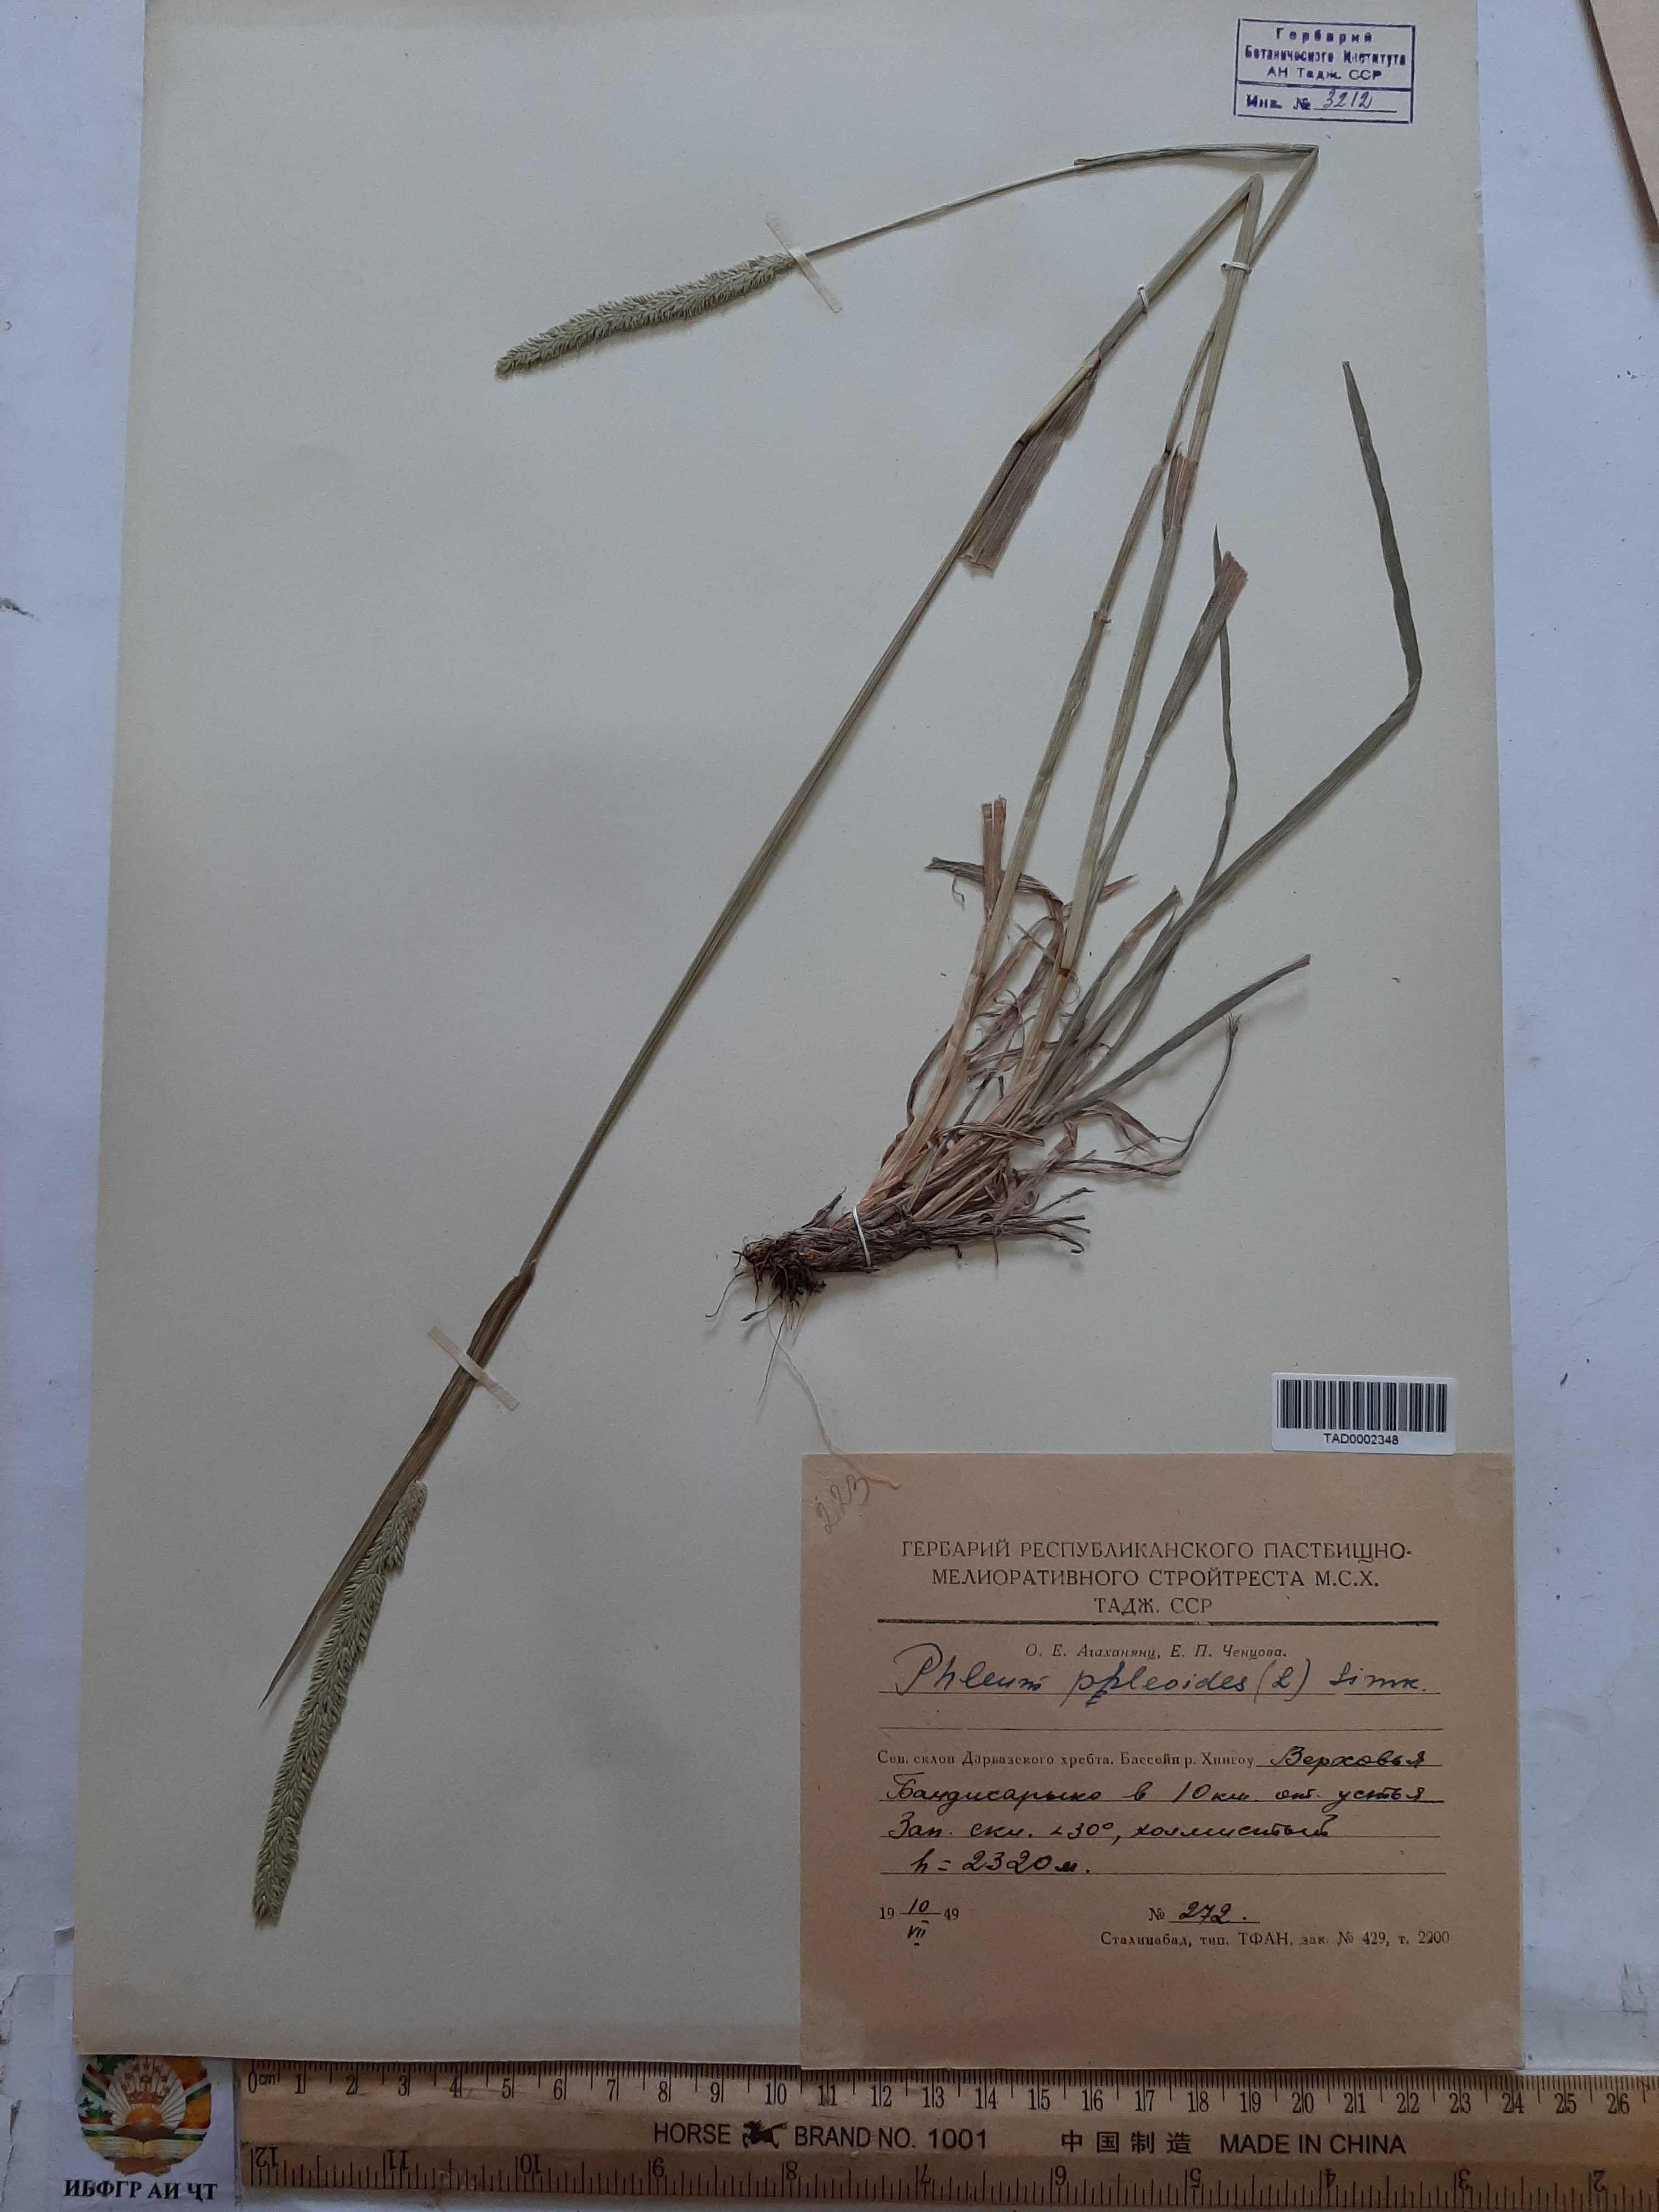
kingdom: Plantae
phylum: Tracheophyta
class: Liliopsida
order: Poales
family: Poaceae
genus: Phleum
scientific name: Phleum phleoides
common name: Purple-stem cat's-tail
